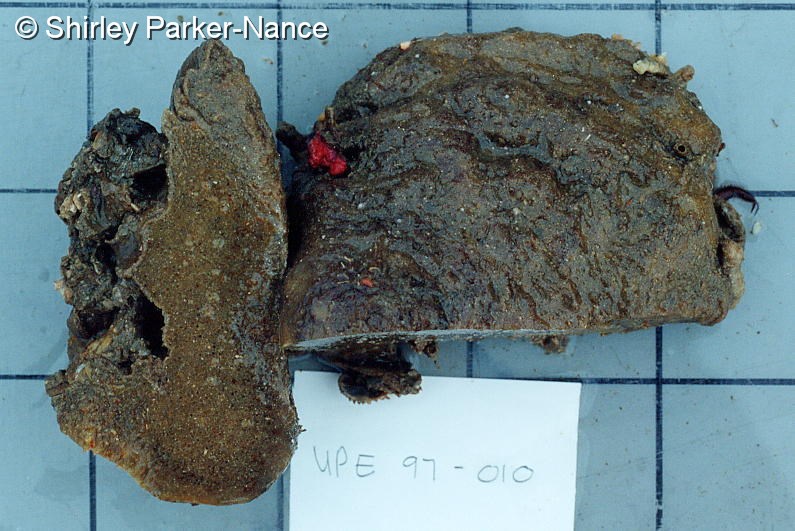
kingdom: Animalia
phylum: Chordata
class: Ascidiacea
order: Aplousobranchia
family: Polyclinidae
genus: Aplidium
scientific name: Aplidium
